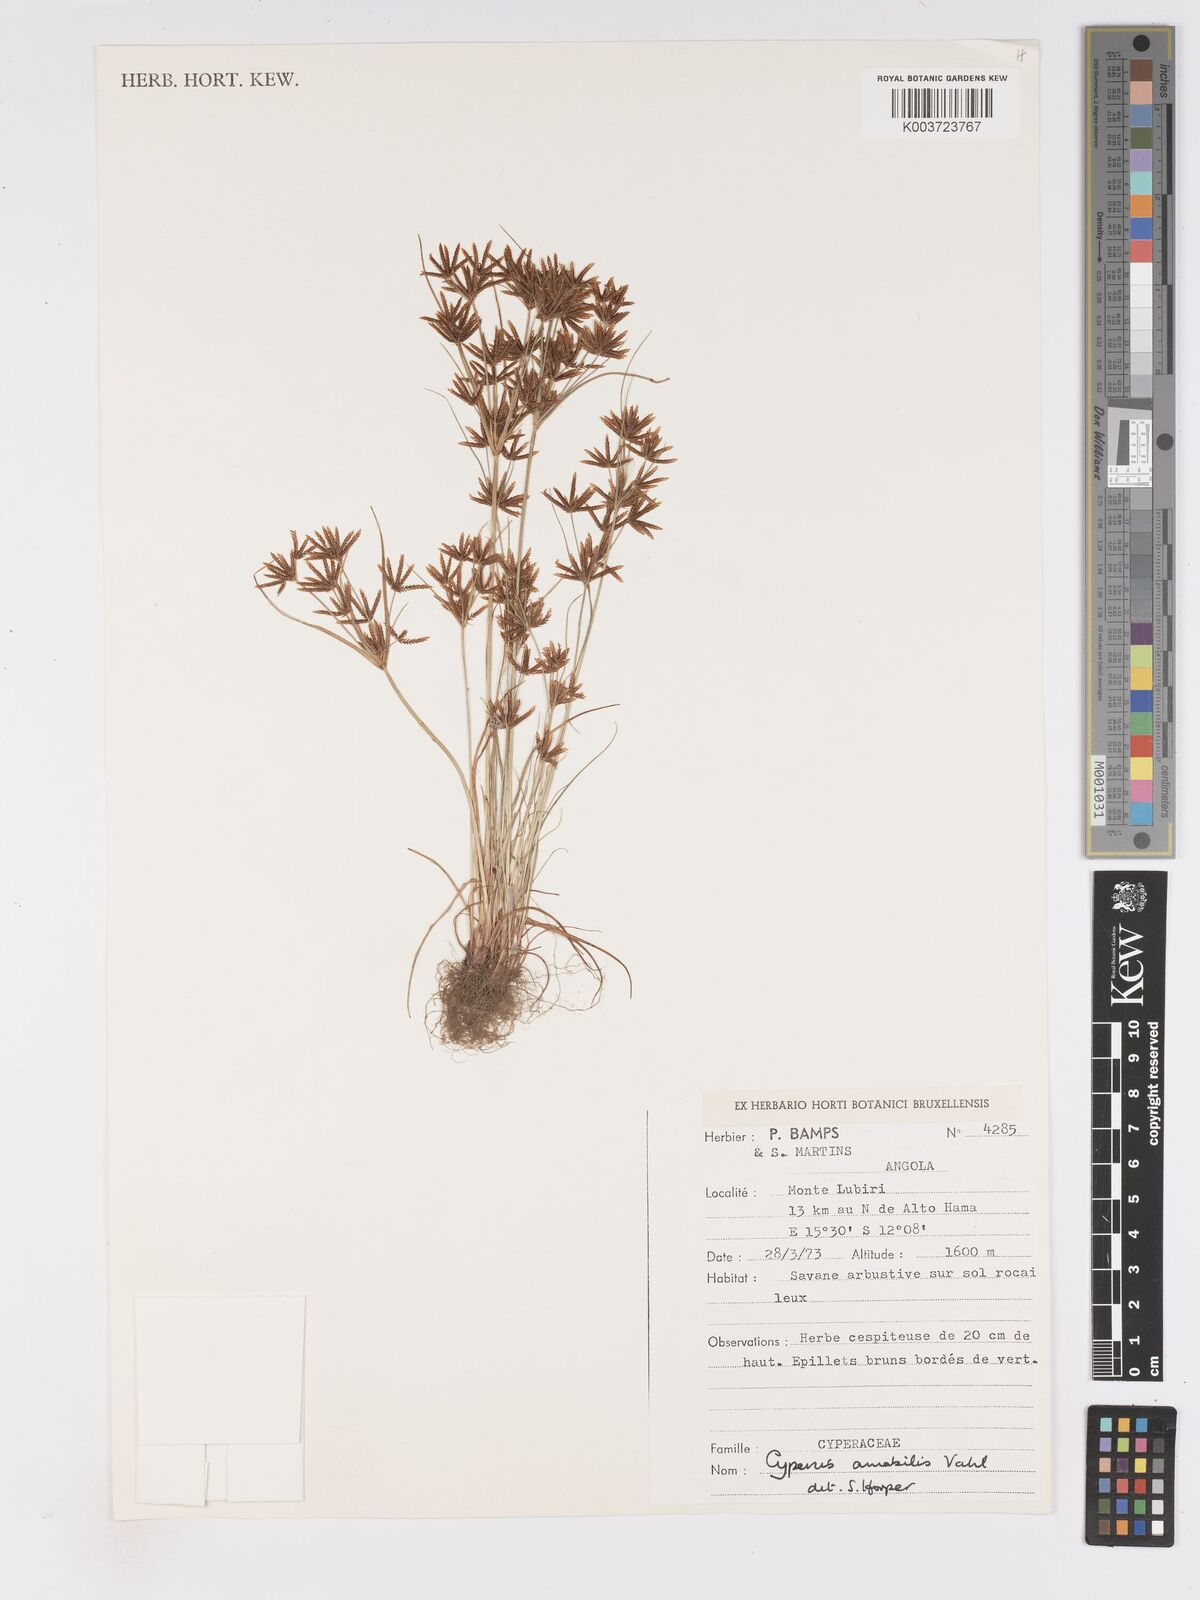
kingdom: Plantae
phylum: Tracheophyta
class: Liliopsida
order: Poales
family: Cyperaceae
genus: Cyperus
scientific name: Cyperus amabilis
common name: Foothill flat sedge
